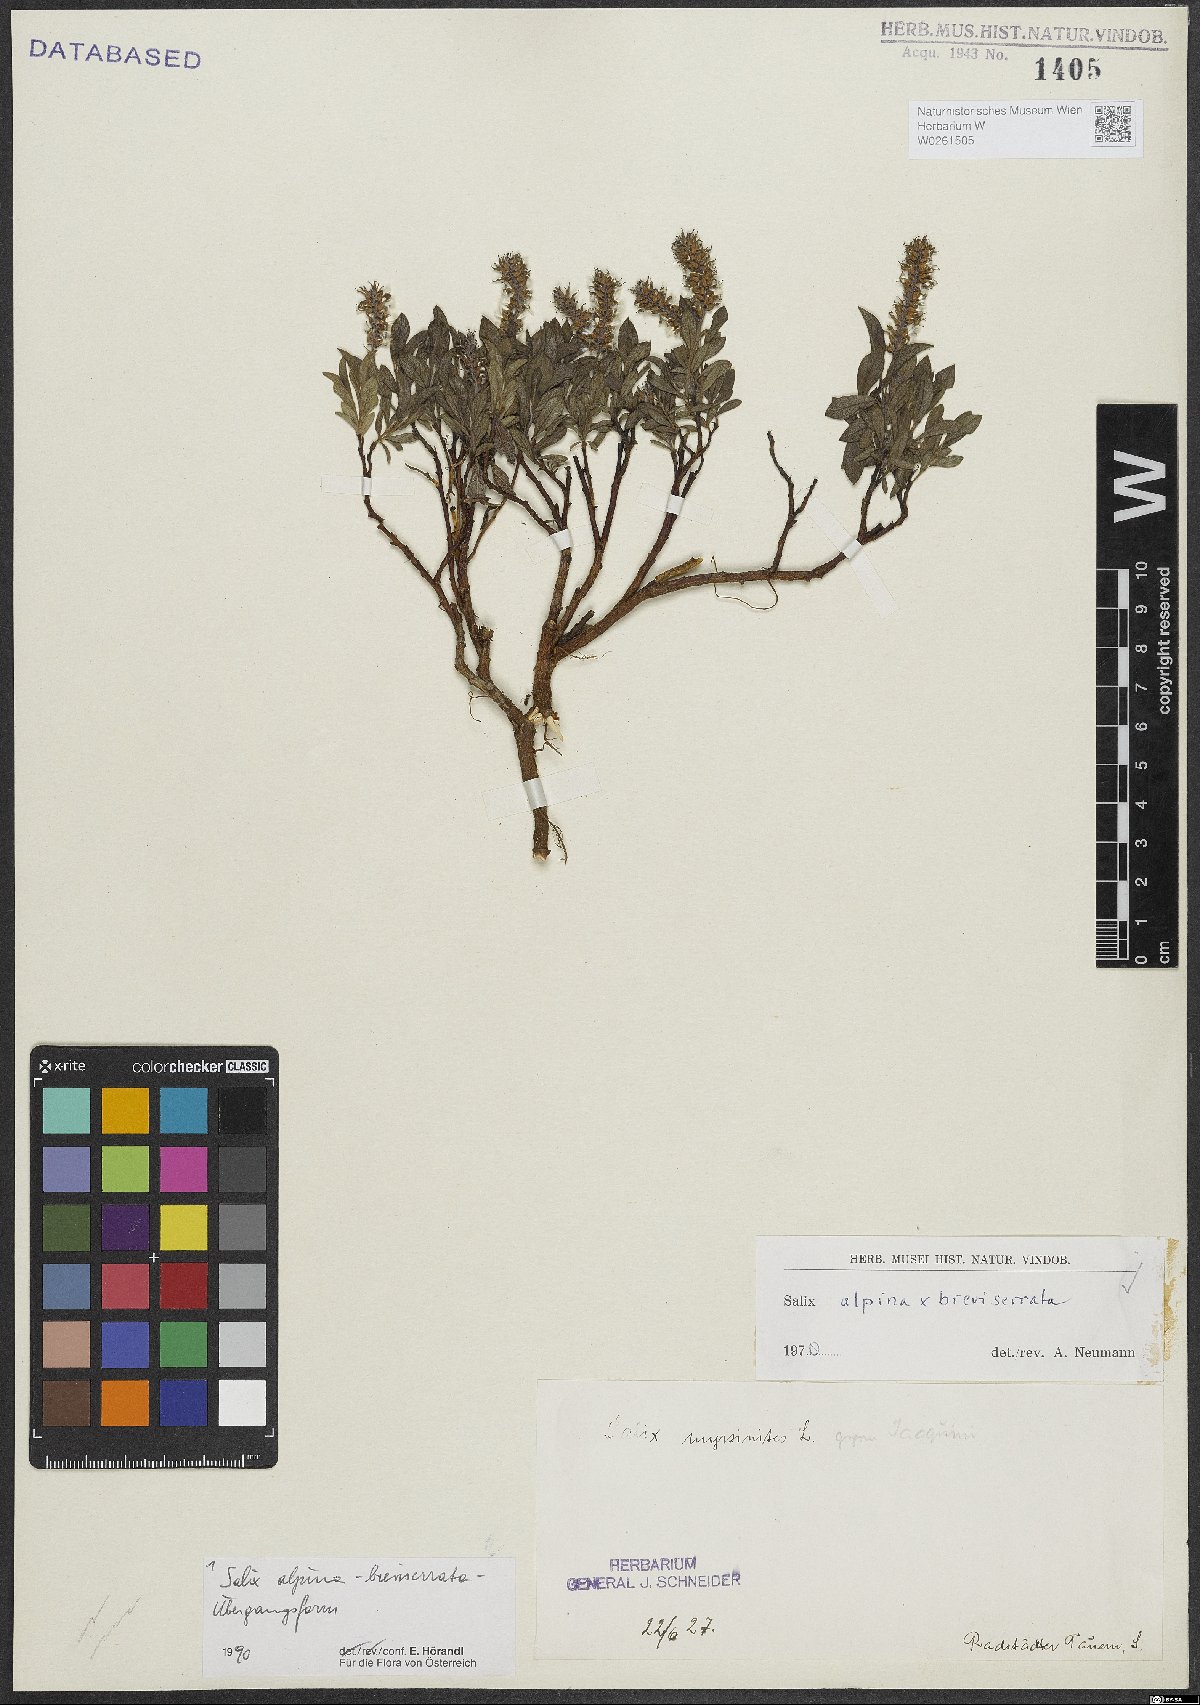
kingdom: Plantae
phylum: Tracheophyta
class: Magnoliopsida
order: Malpighiales
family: Salicaceae
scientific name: Salicaceae
